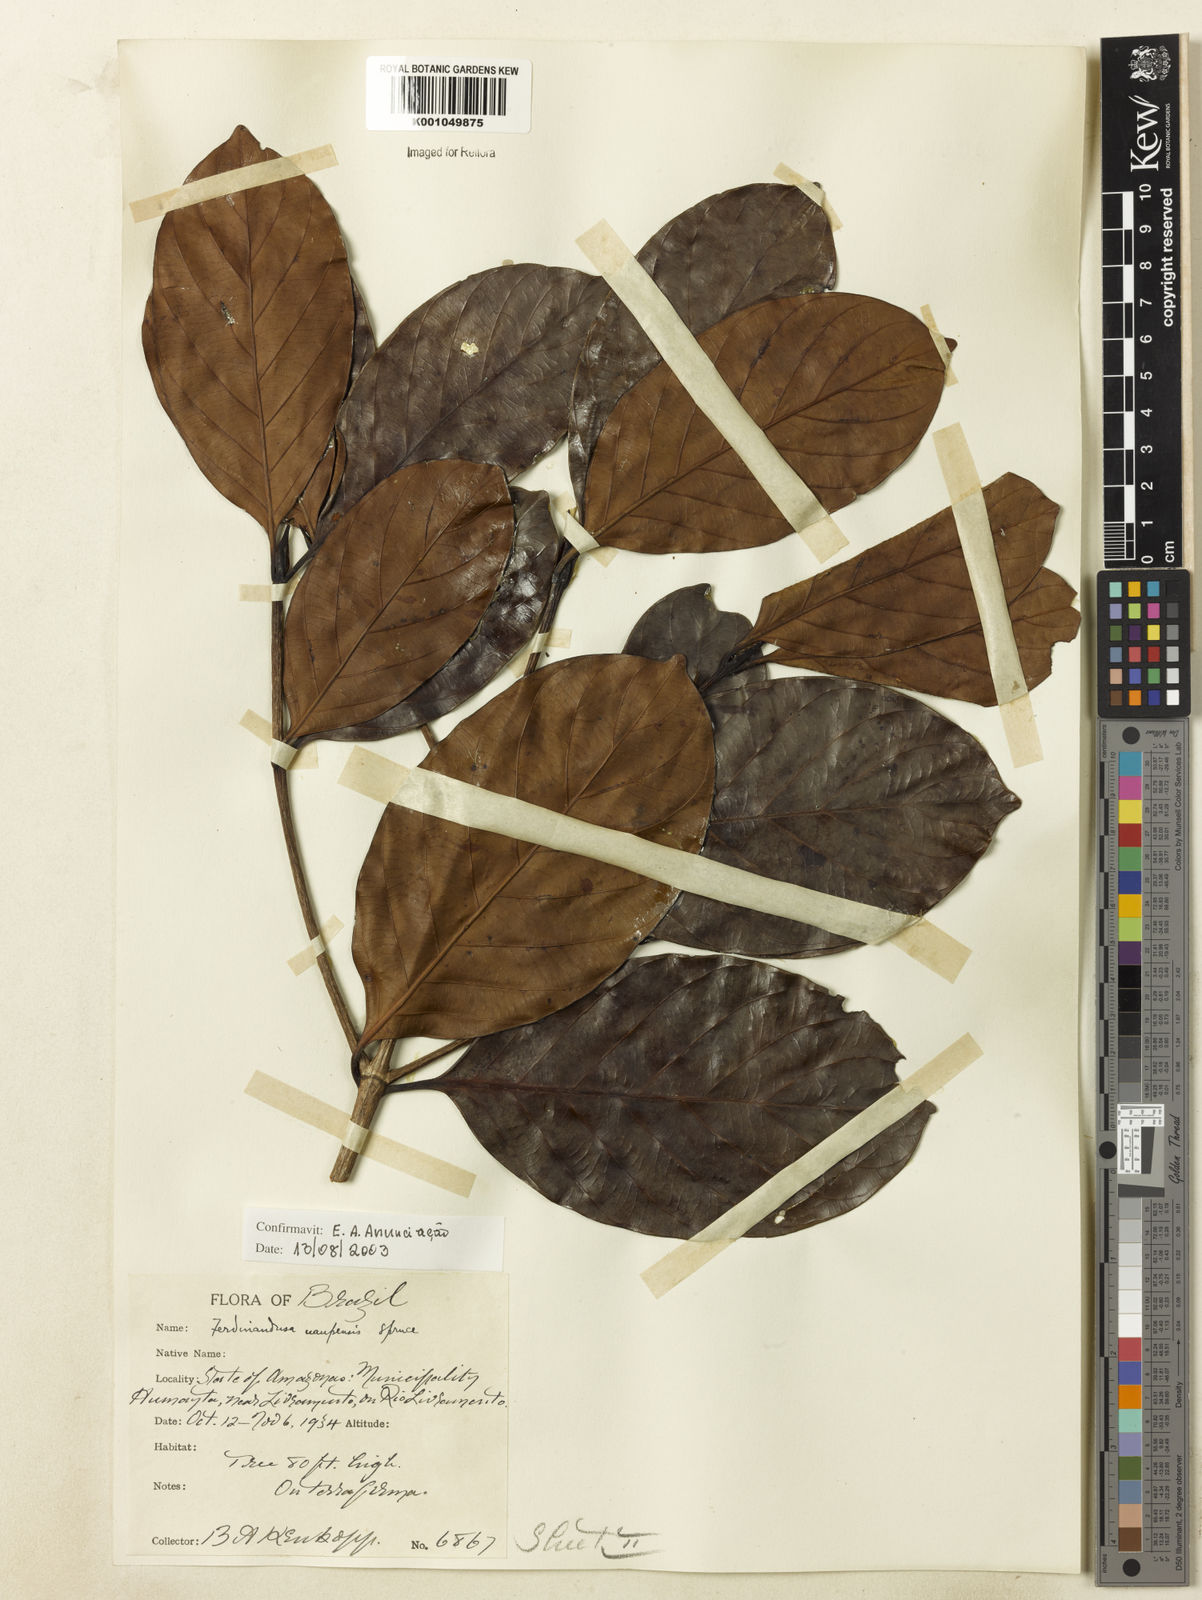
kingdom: Plantae
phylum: Tracheophyta
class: Magnoliopsida
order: Gentianales
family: Rubiaceae
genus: Ferdinandusa
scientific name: Ferdinandusa uaupensis
